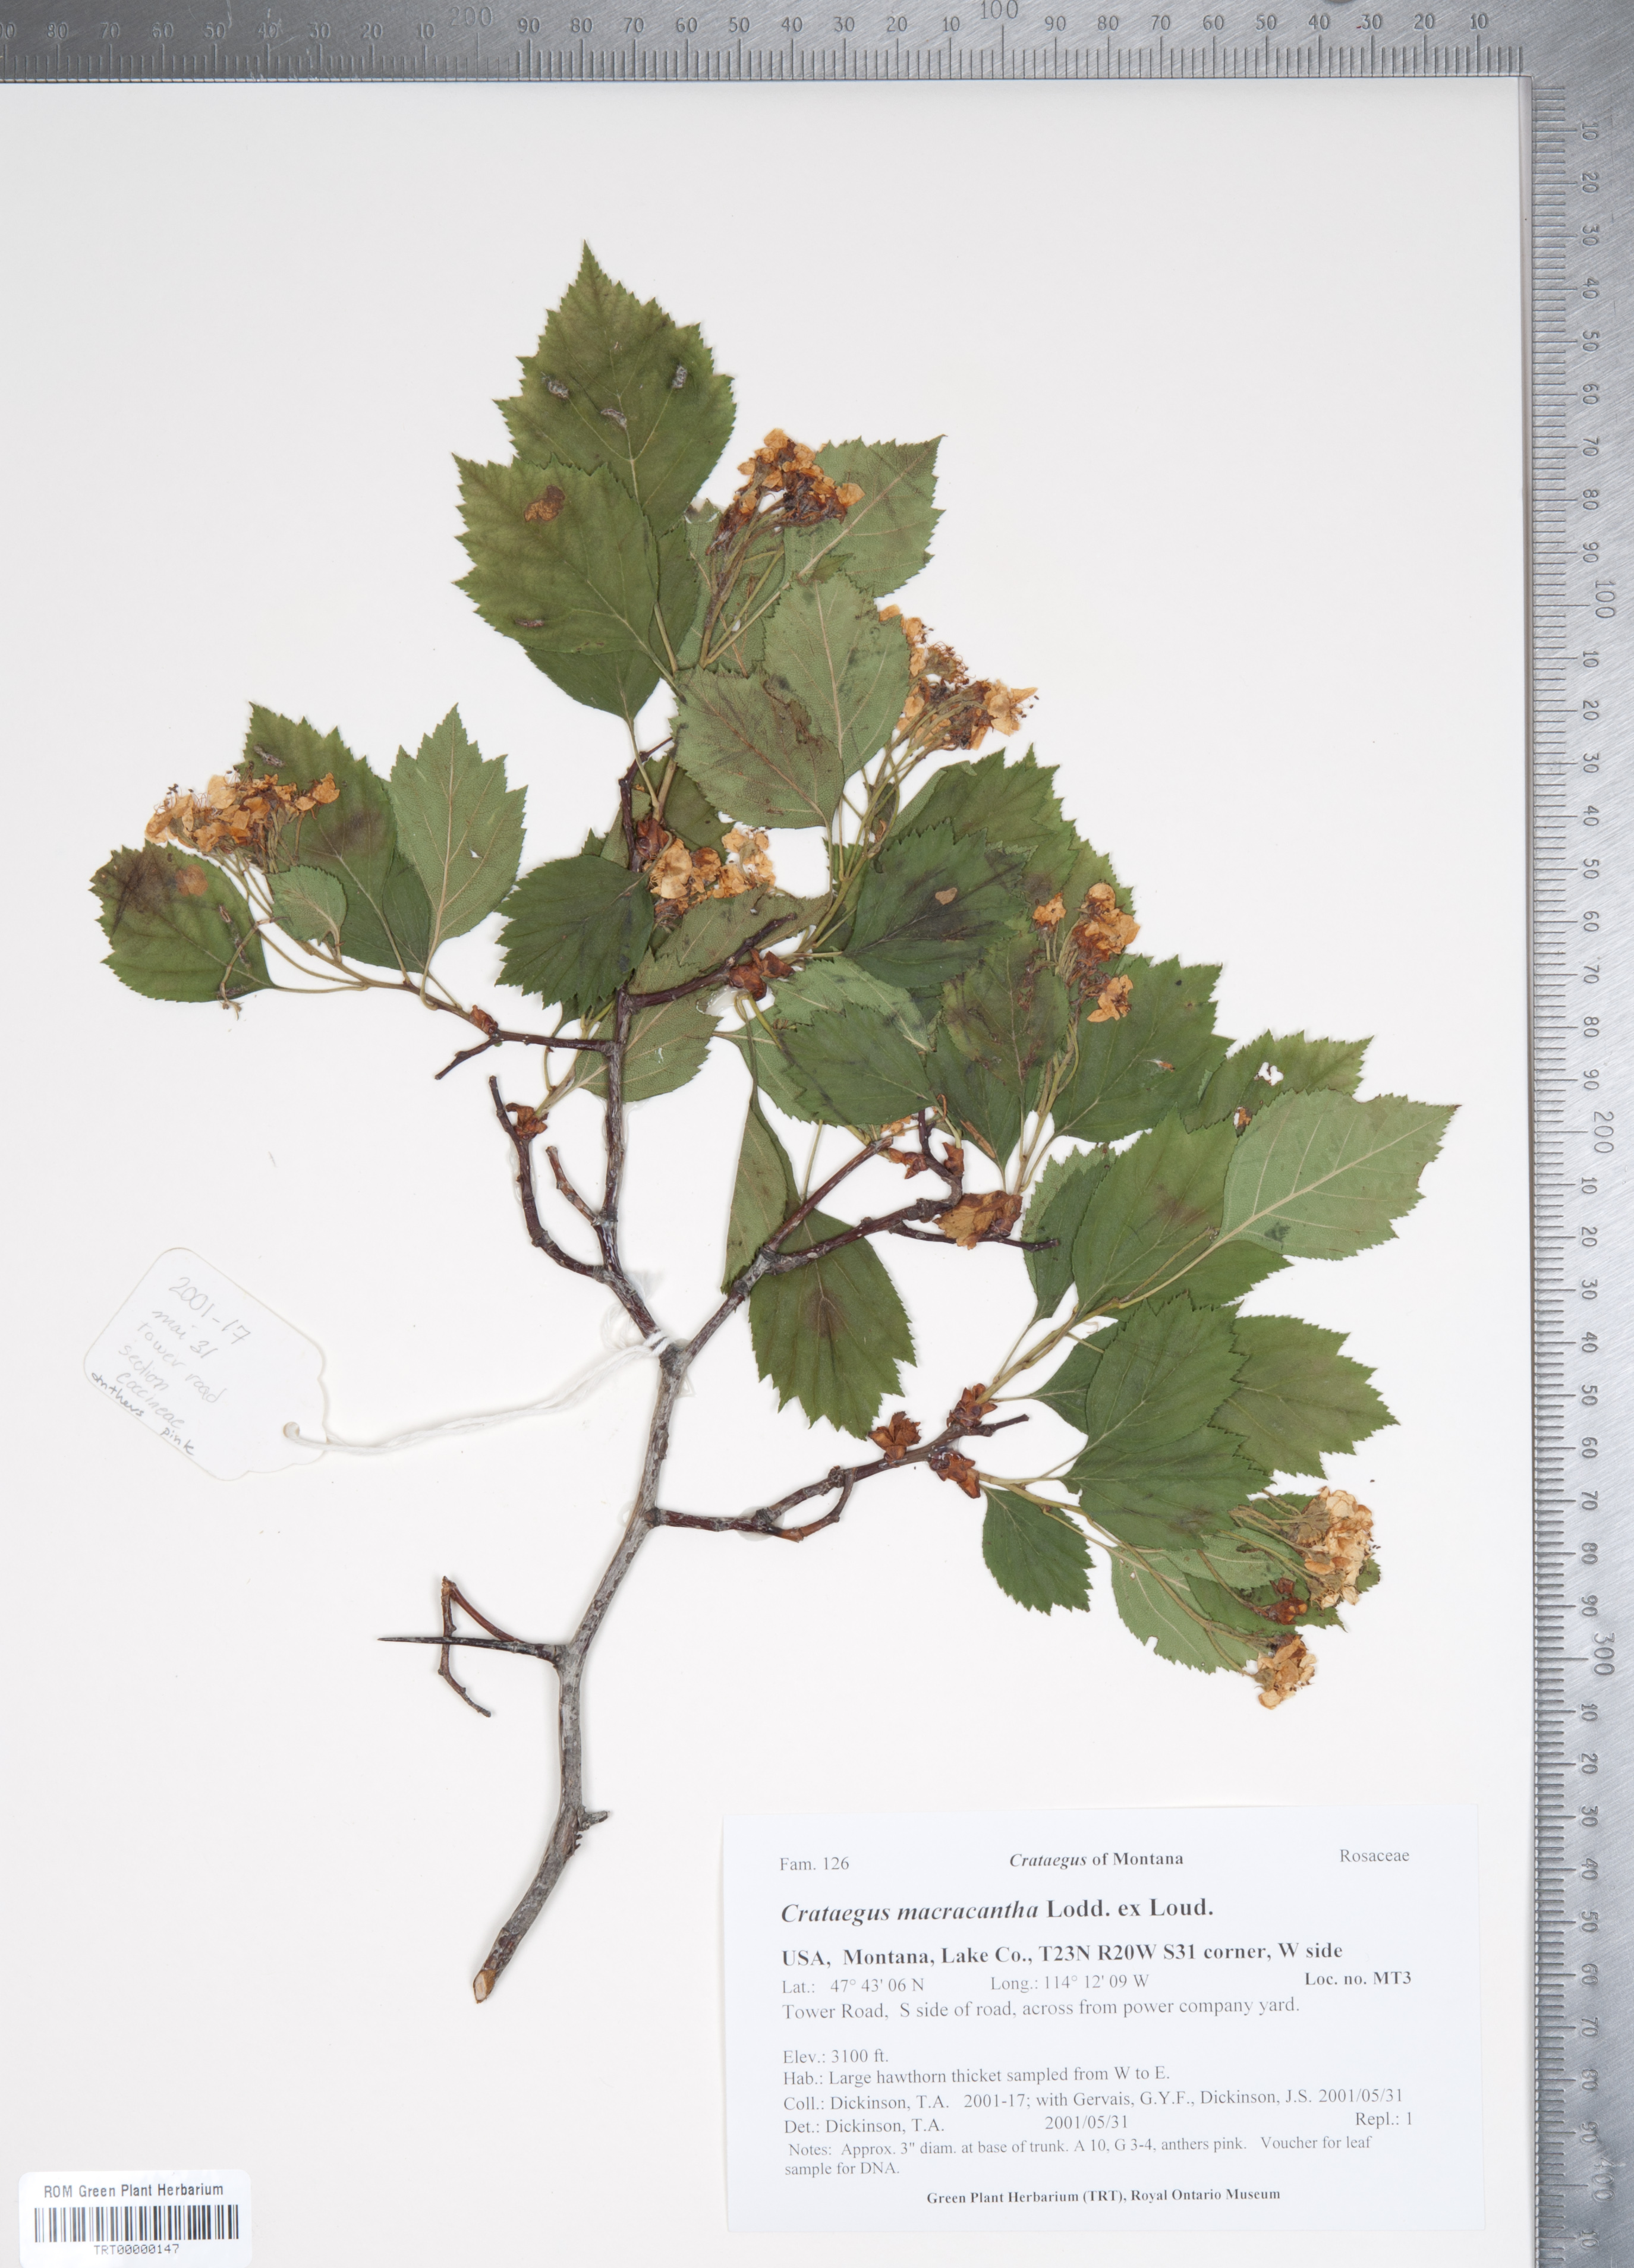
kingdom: Plantae
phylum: Tracheophyta
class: Magnoliopsida
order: Rosales
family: Rosaceae
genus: Crataegus
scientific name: Crataegus macracantha
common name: Large-thorn hawthorn
